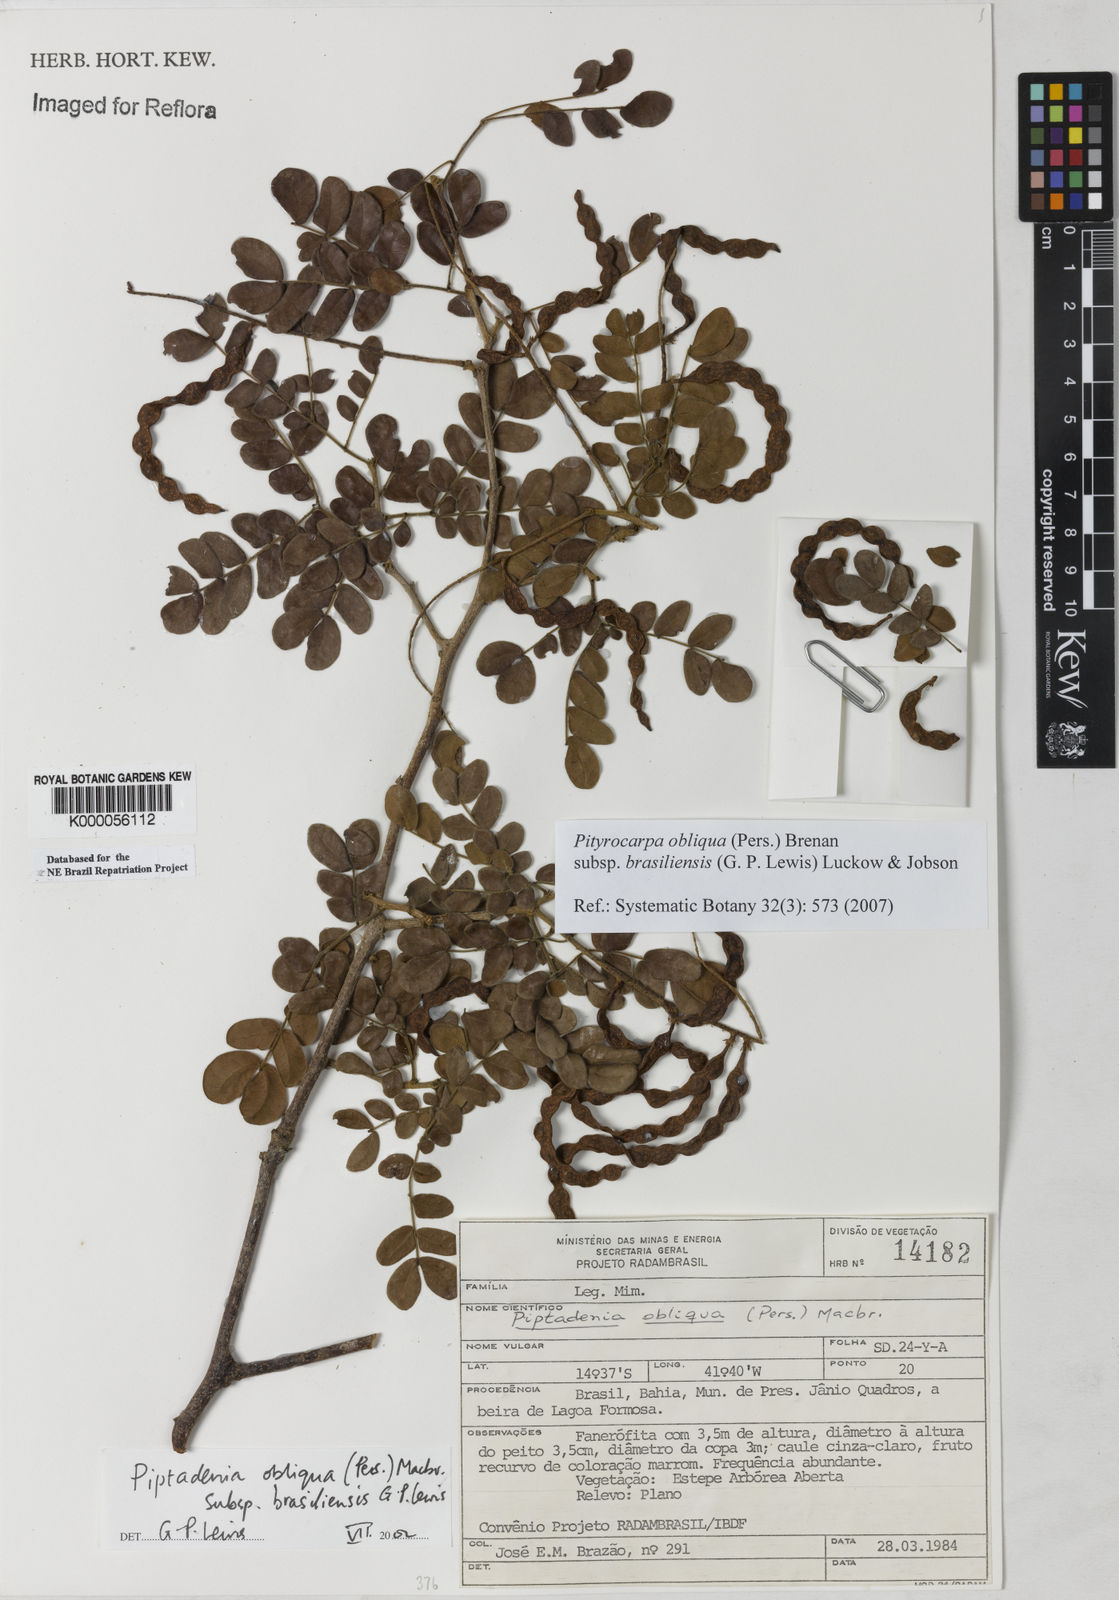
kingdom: Plantae
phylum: Tracheophyta
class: Magnoliopsida
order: Fabales
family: Fabaceae
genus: Pityrocarpa
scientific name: Pityrocarpa obliqua
